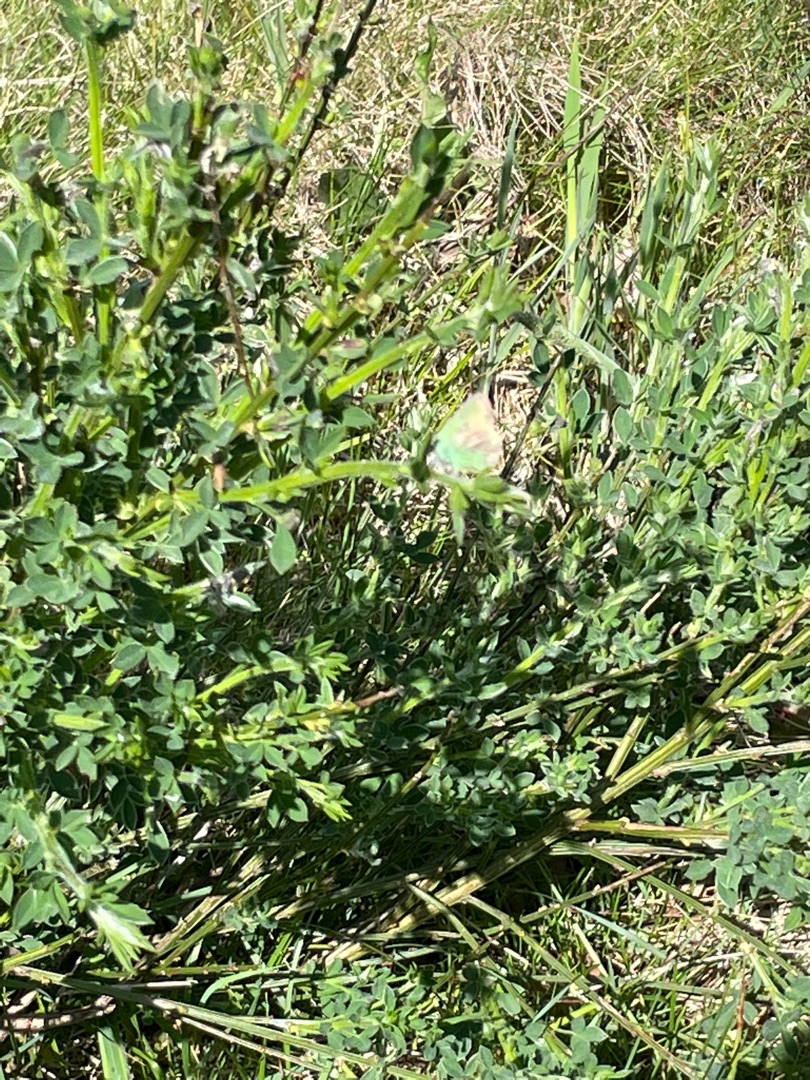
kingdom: Animalia
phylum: Arthropoda
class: Insecta
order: Lepidoptera
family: Lycaenidae
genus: Callophrys
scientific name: Callophrys rubi
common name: Grøn busksommerfugl
